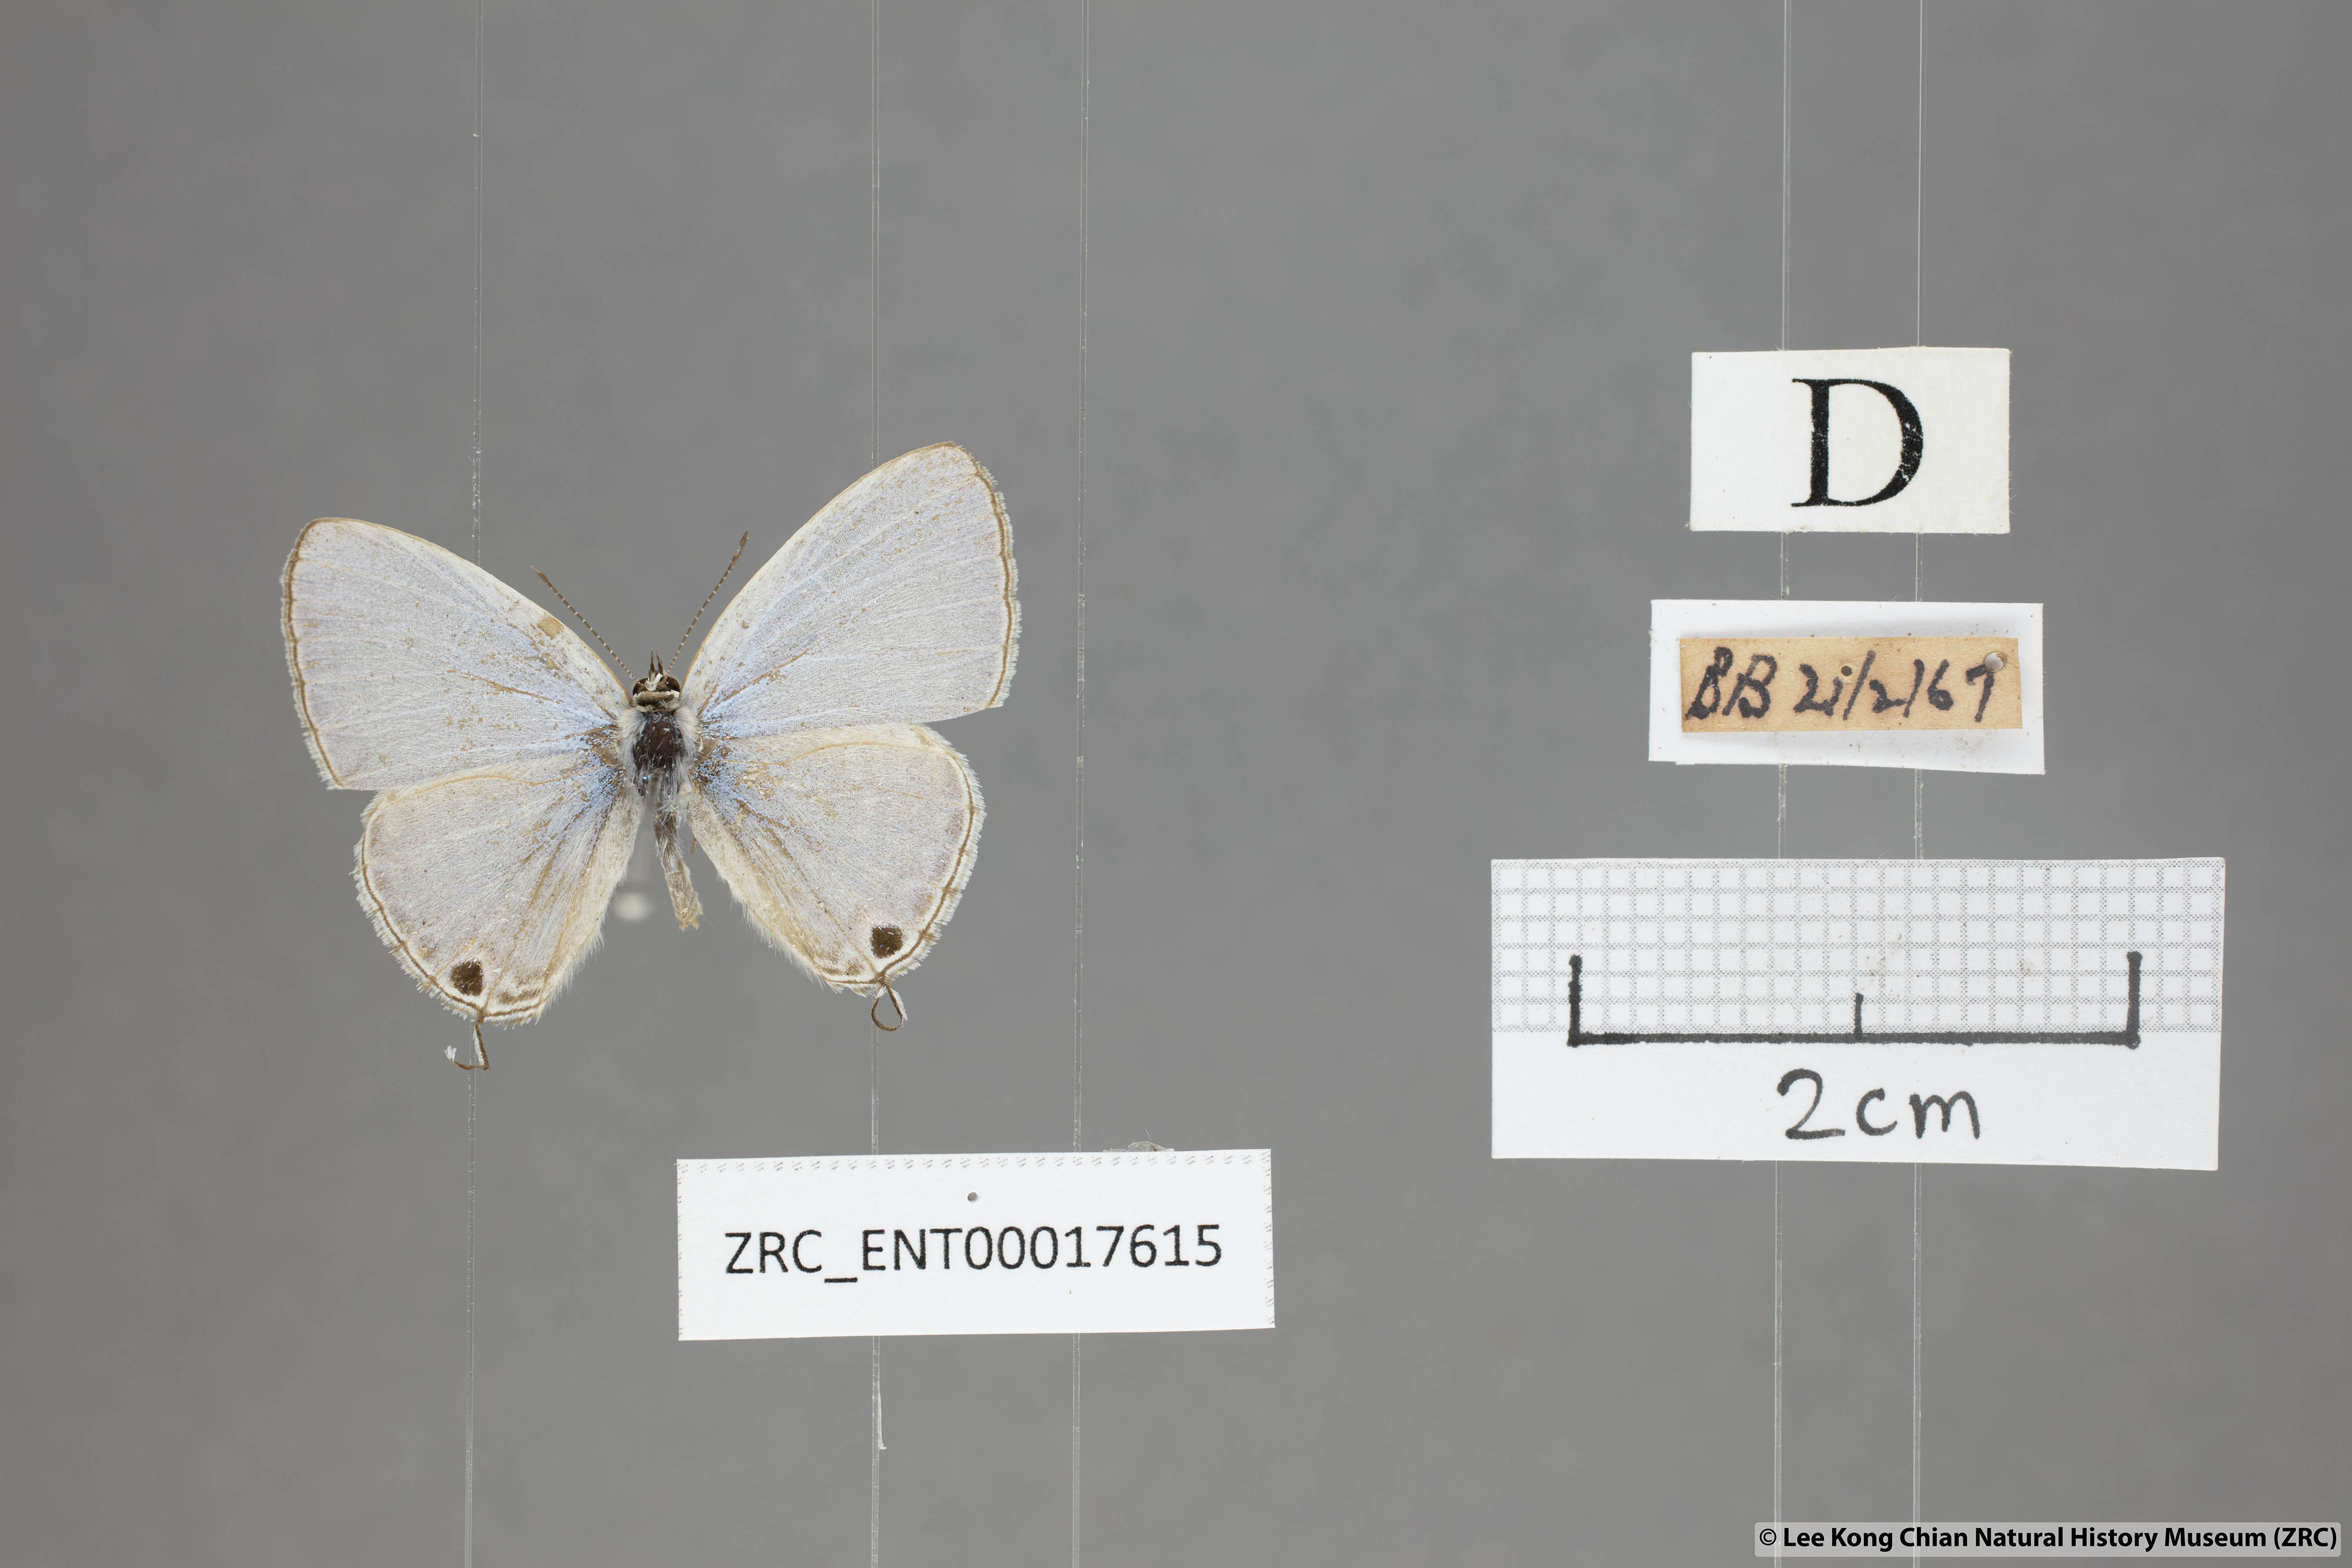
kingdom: Animalia
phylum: Arthropoda
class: Insecta
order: Lepidoptera
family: Lycaenidae
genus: Catochrysops
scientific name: Catochrysops panormus
